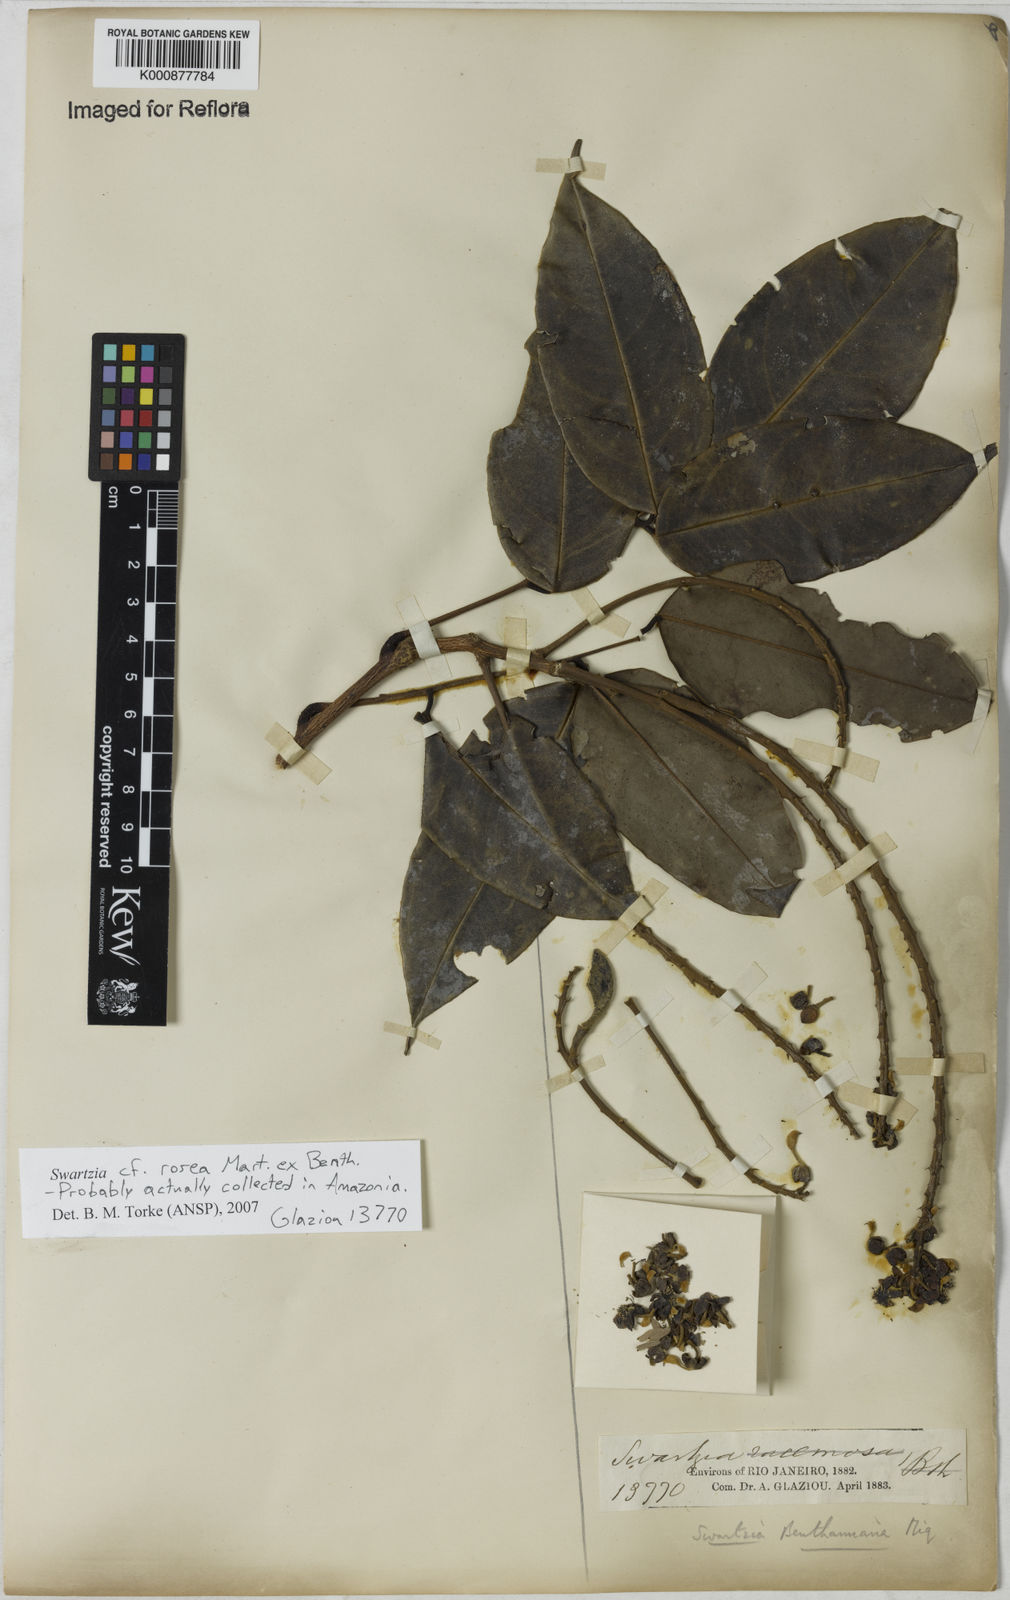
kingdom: Plantae
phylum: Tracheophyta
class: Magnoliopsida
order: Fabales
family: Fabaceae
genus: Swartzia
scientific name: Swartzia rosea
